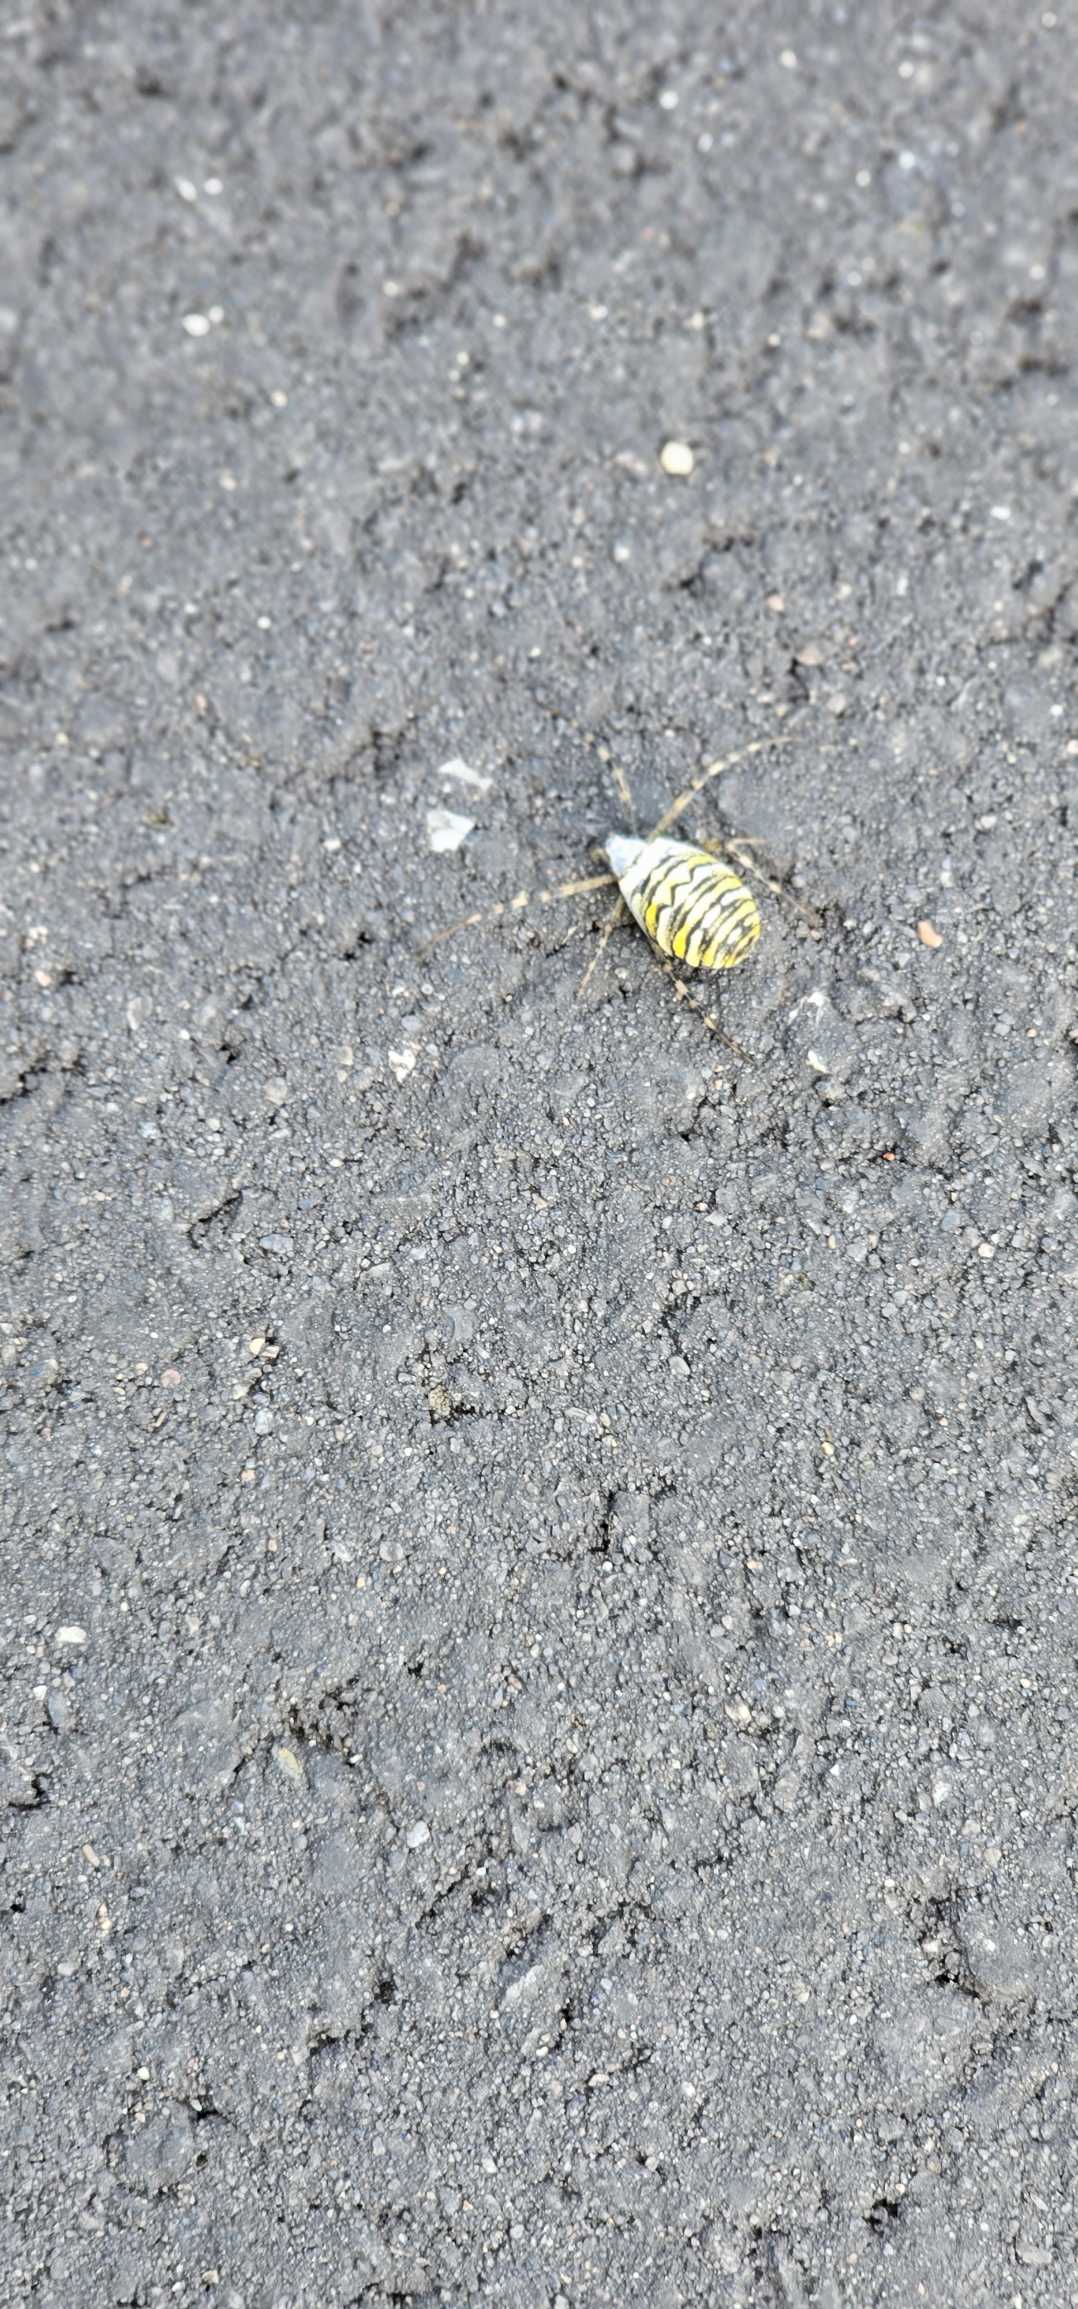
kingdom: Animalia
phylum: Arthropoda
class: Arachnida
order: Araneae
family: Araneidae
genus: Argiope
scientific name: Argiope bruennichi
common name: Hvepseedderkop
